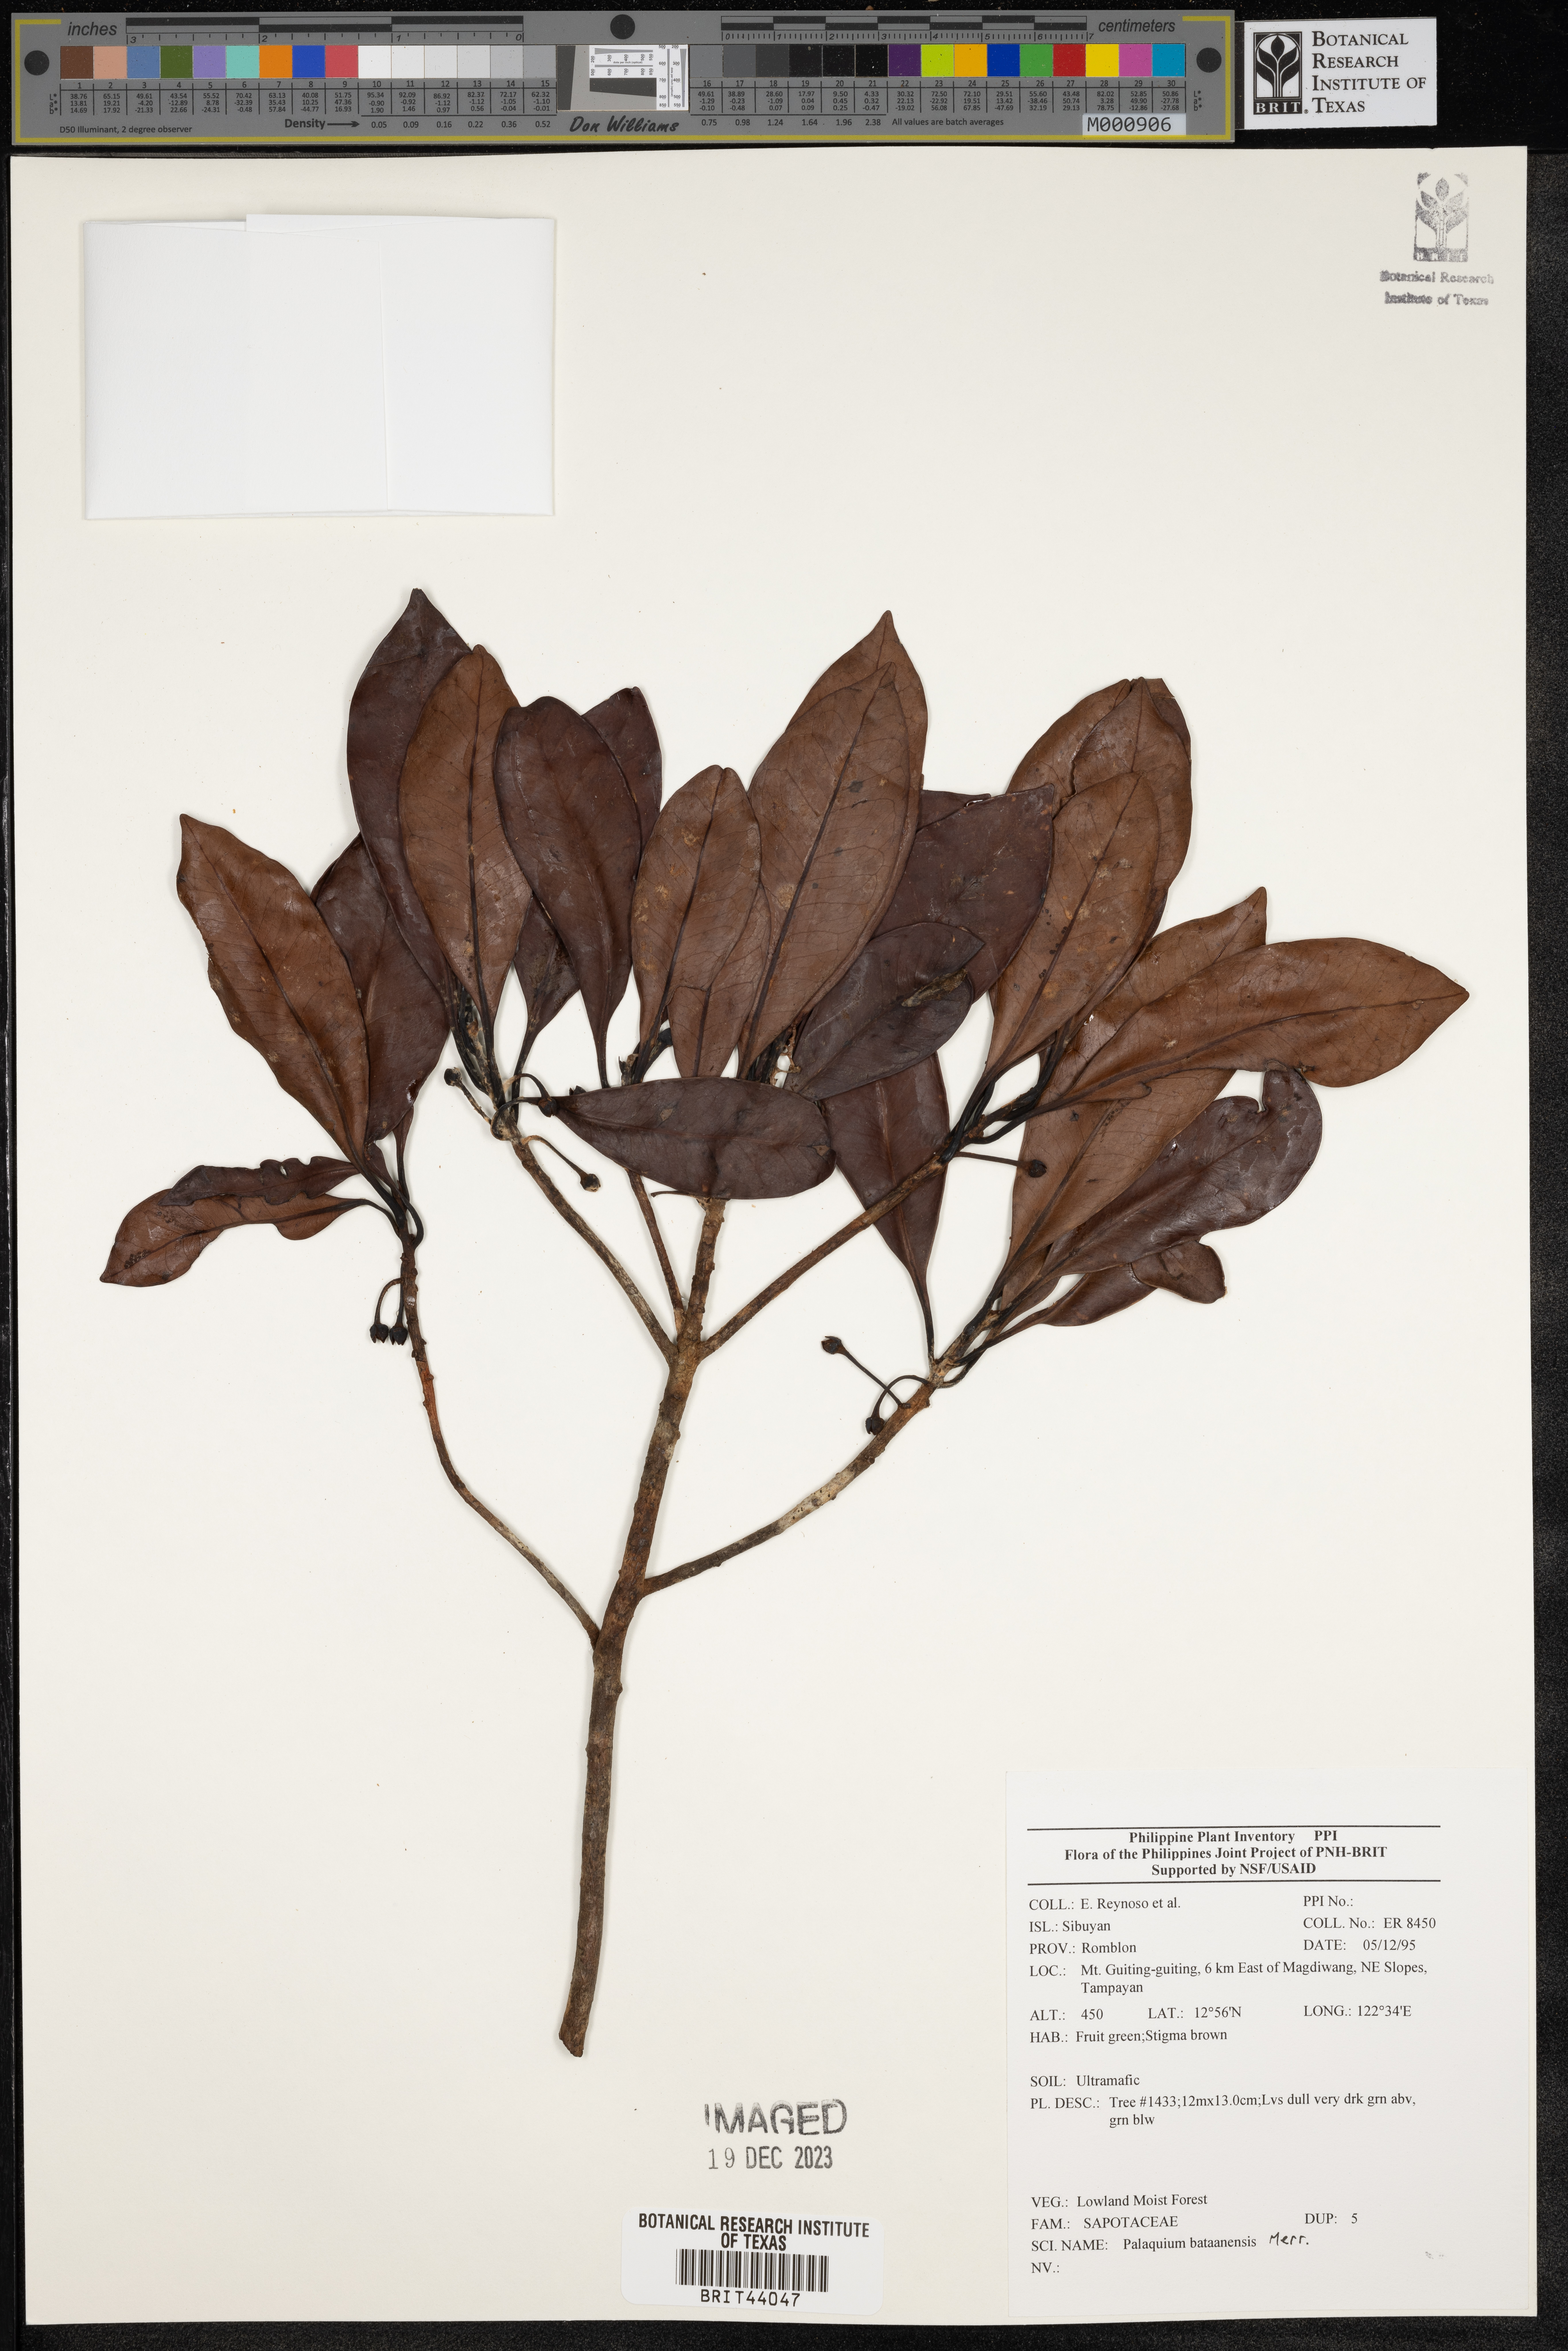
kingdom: Plantae
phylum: Tracheophyta
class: Magnoliopsida
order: Ericales
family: Sapotaceae
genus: Palaquium
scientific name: Palaquium bataanense
